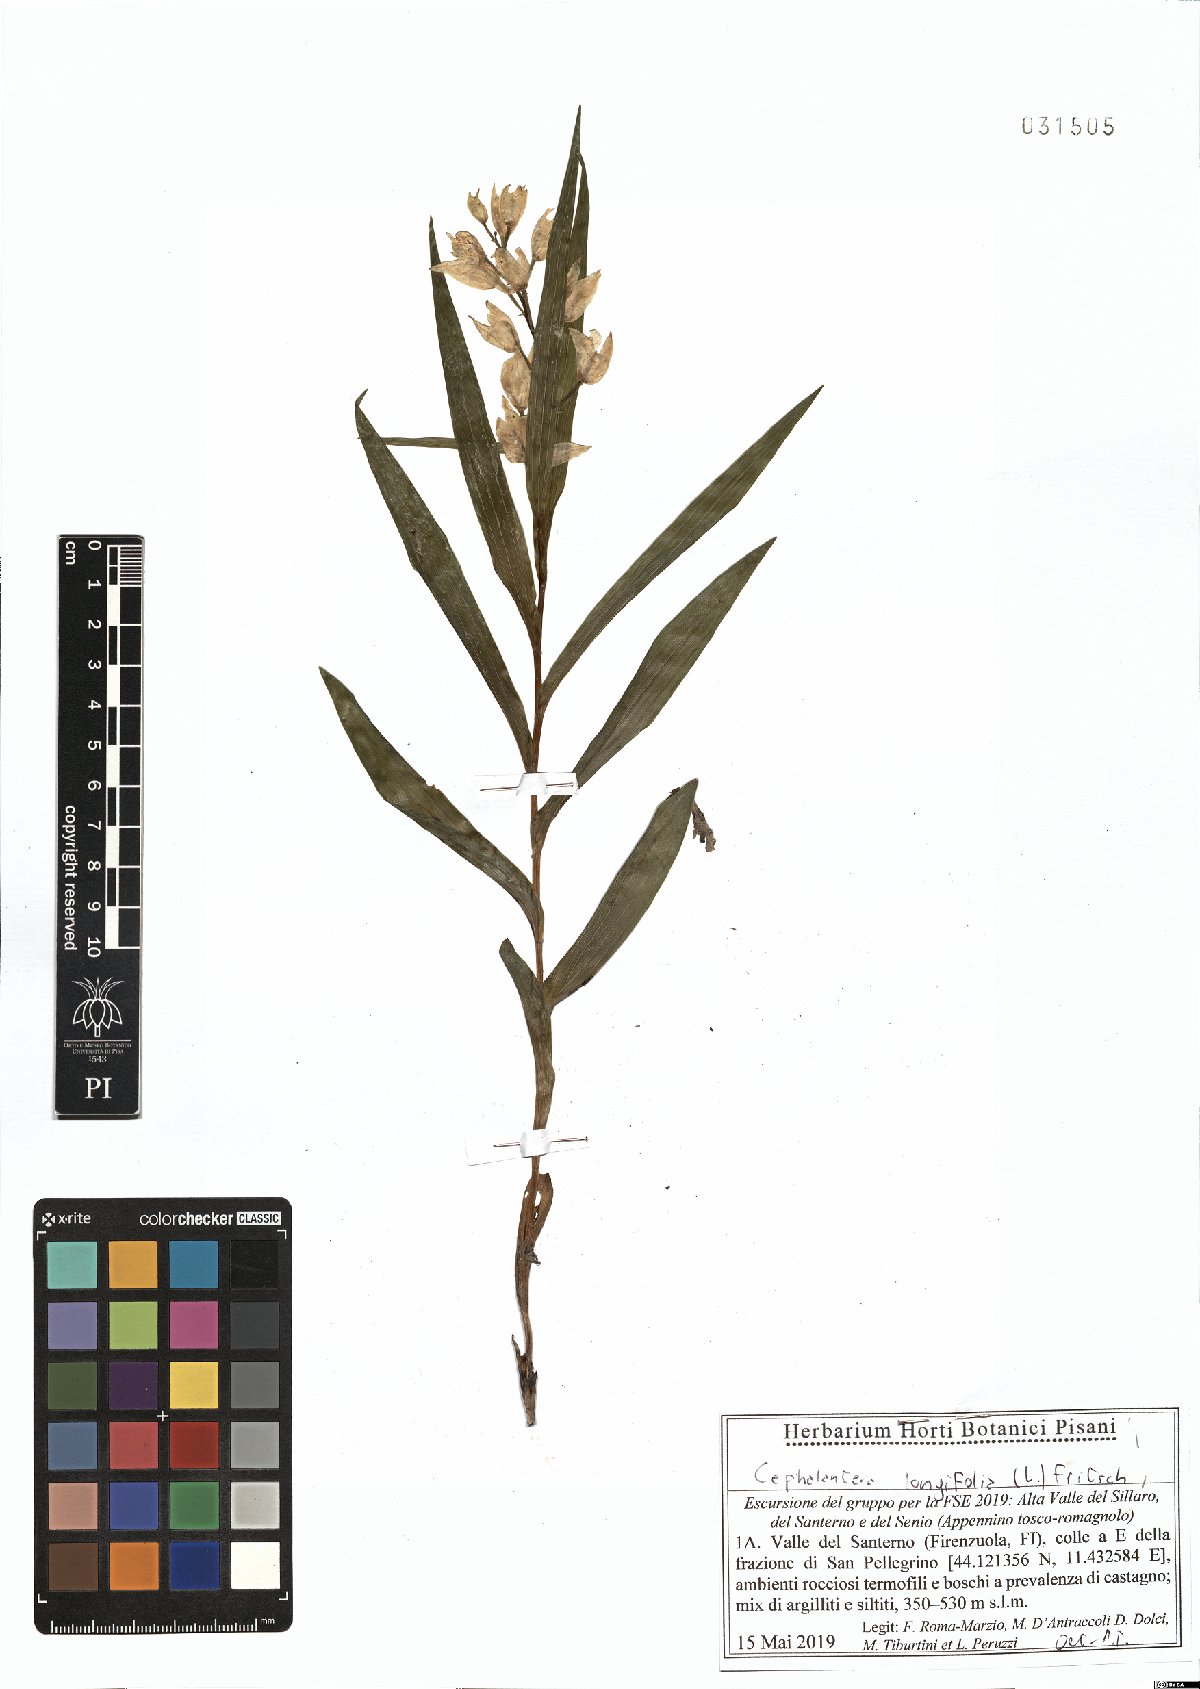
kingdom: Plantae
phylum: Tracheophyta
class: Liliopsida
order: Asparagales
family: Orchidaceae
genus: Cephalanthera
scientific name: Cephalanthera longifolia
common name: Narrow-leaved helleborine
